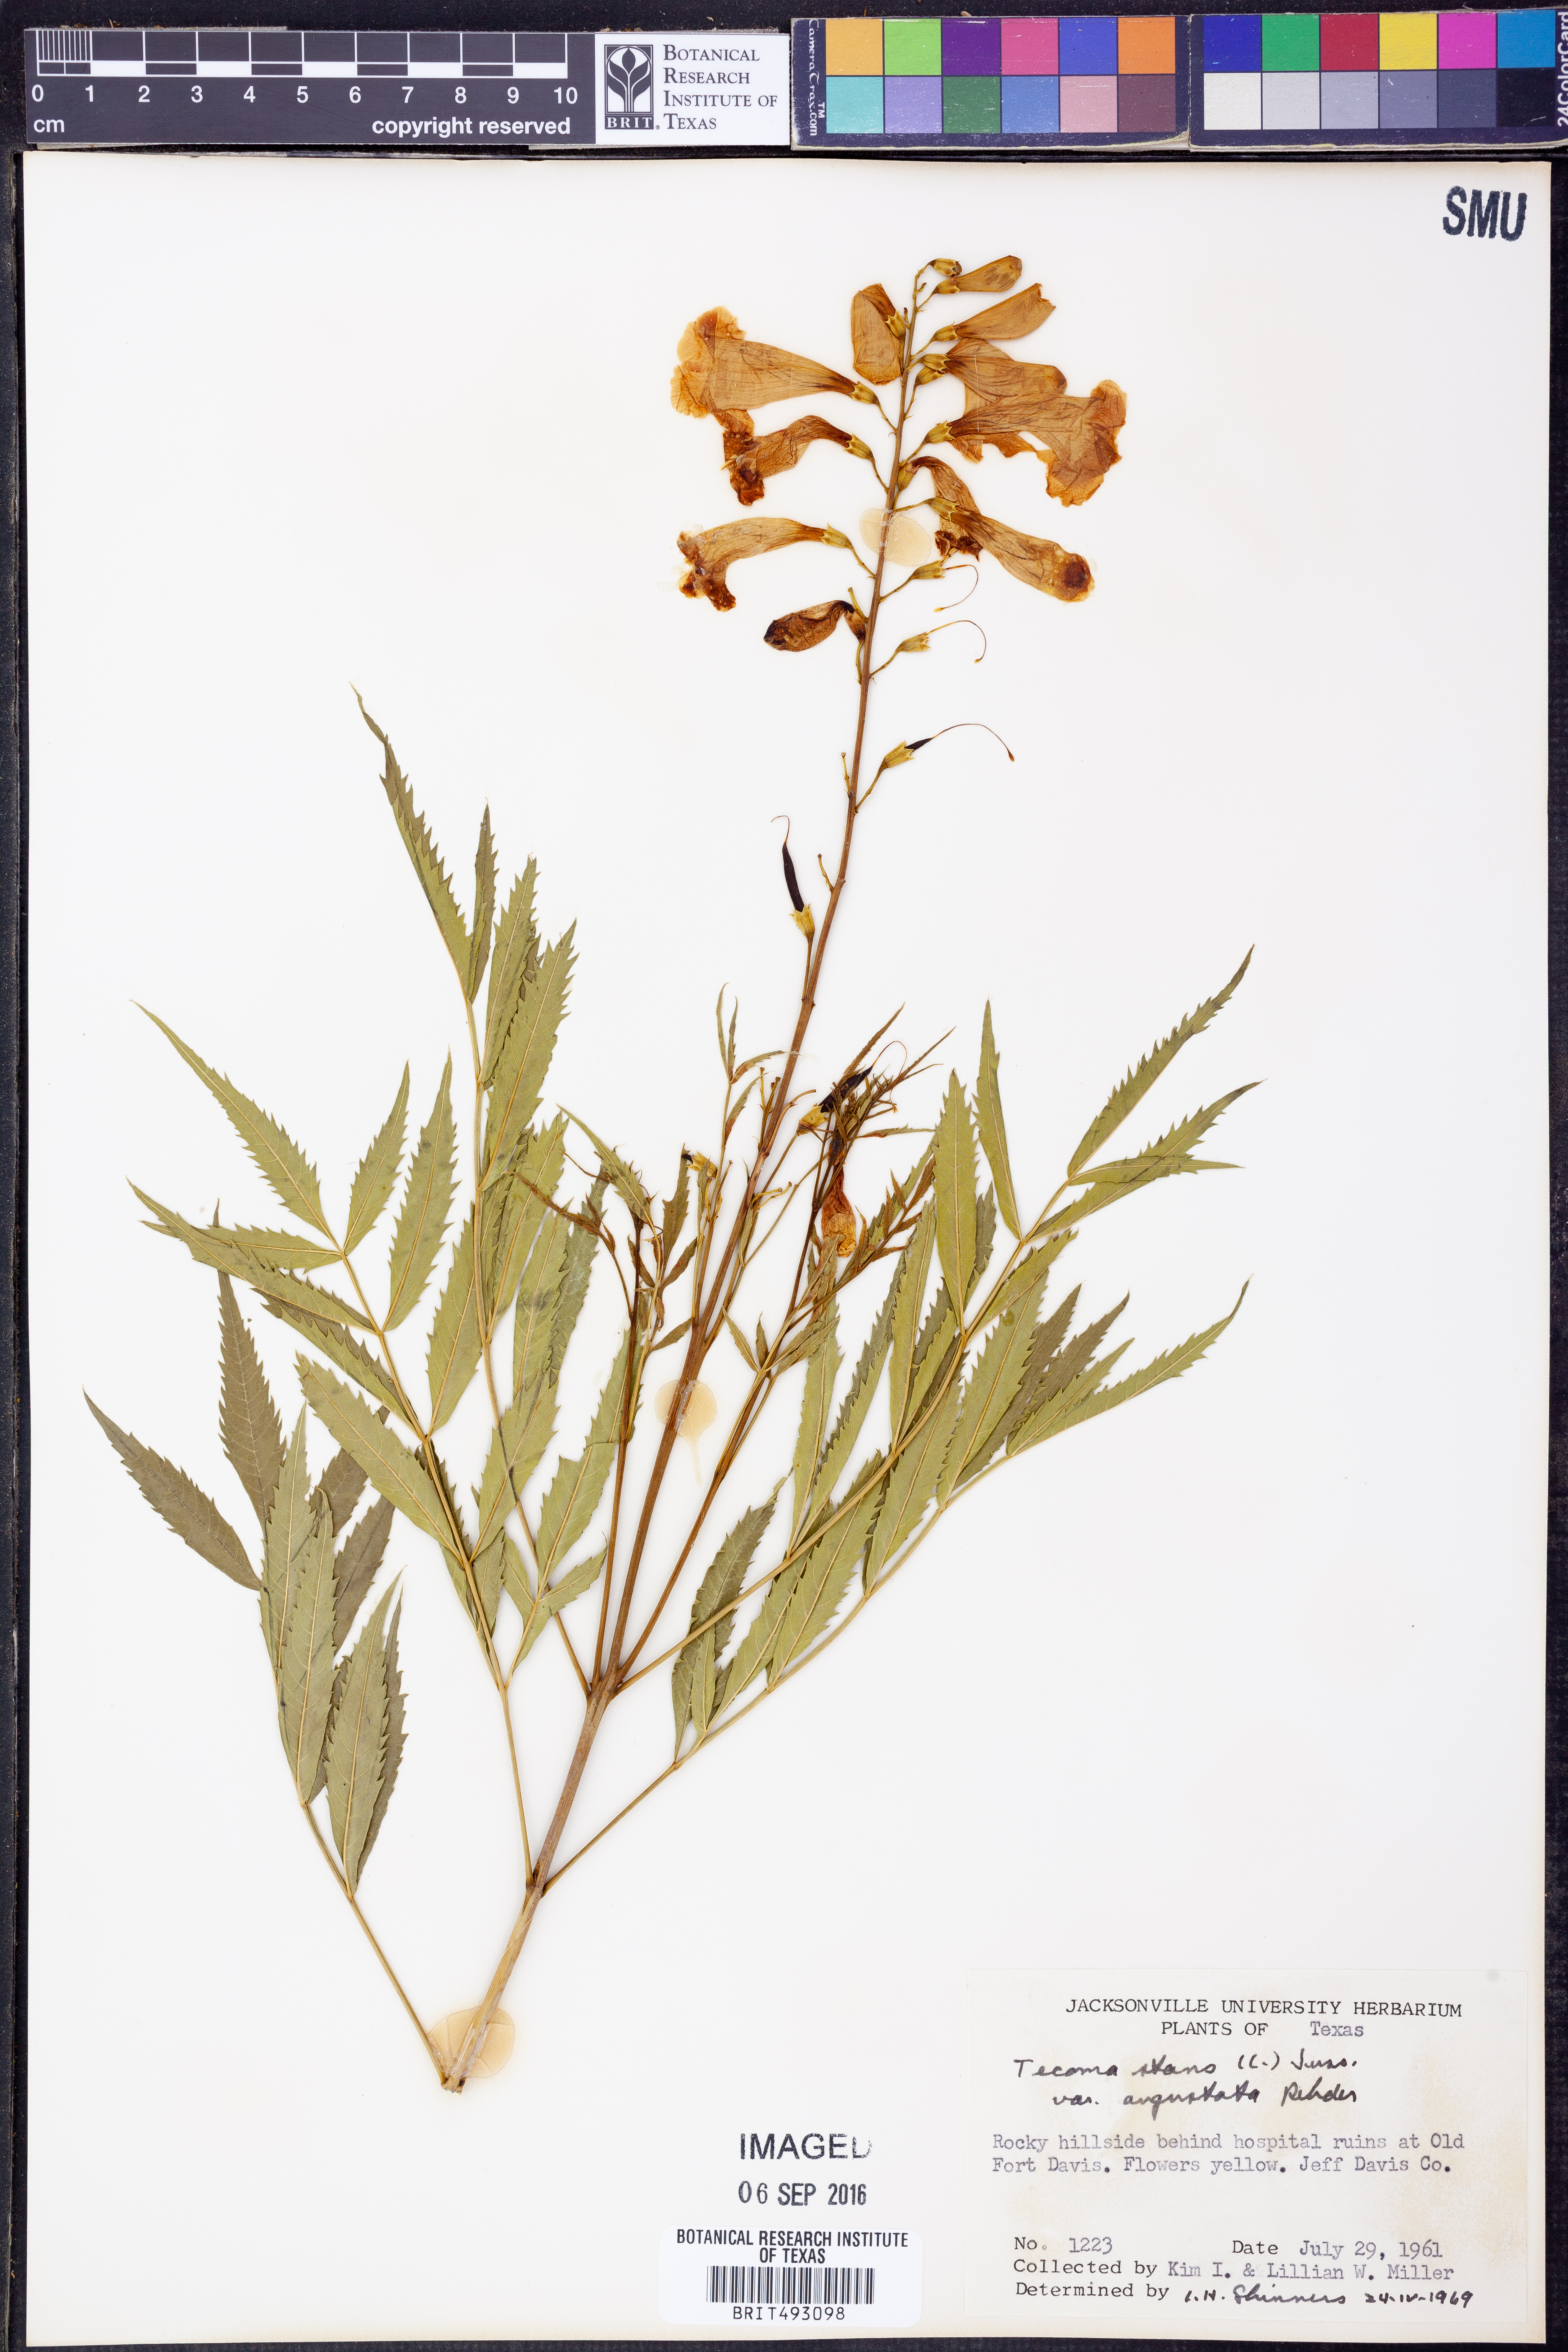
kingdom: Plantae
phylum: Tracheophyta
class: Magnoliopsida
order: Lamiales
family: Bignoniaceae
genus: Tecoma
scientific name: Tecoma stans
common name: Yellow trumpetbush
